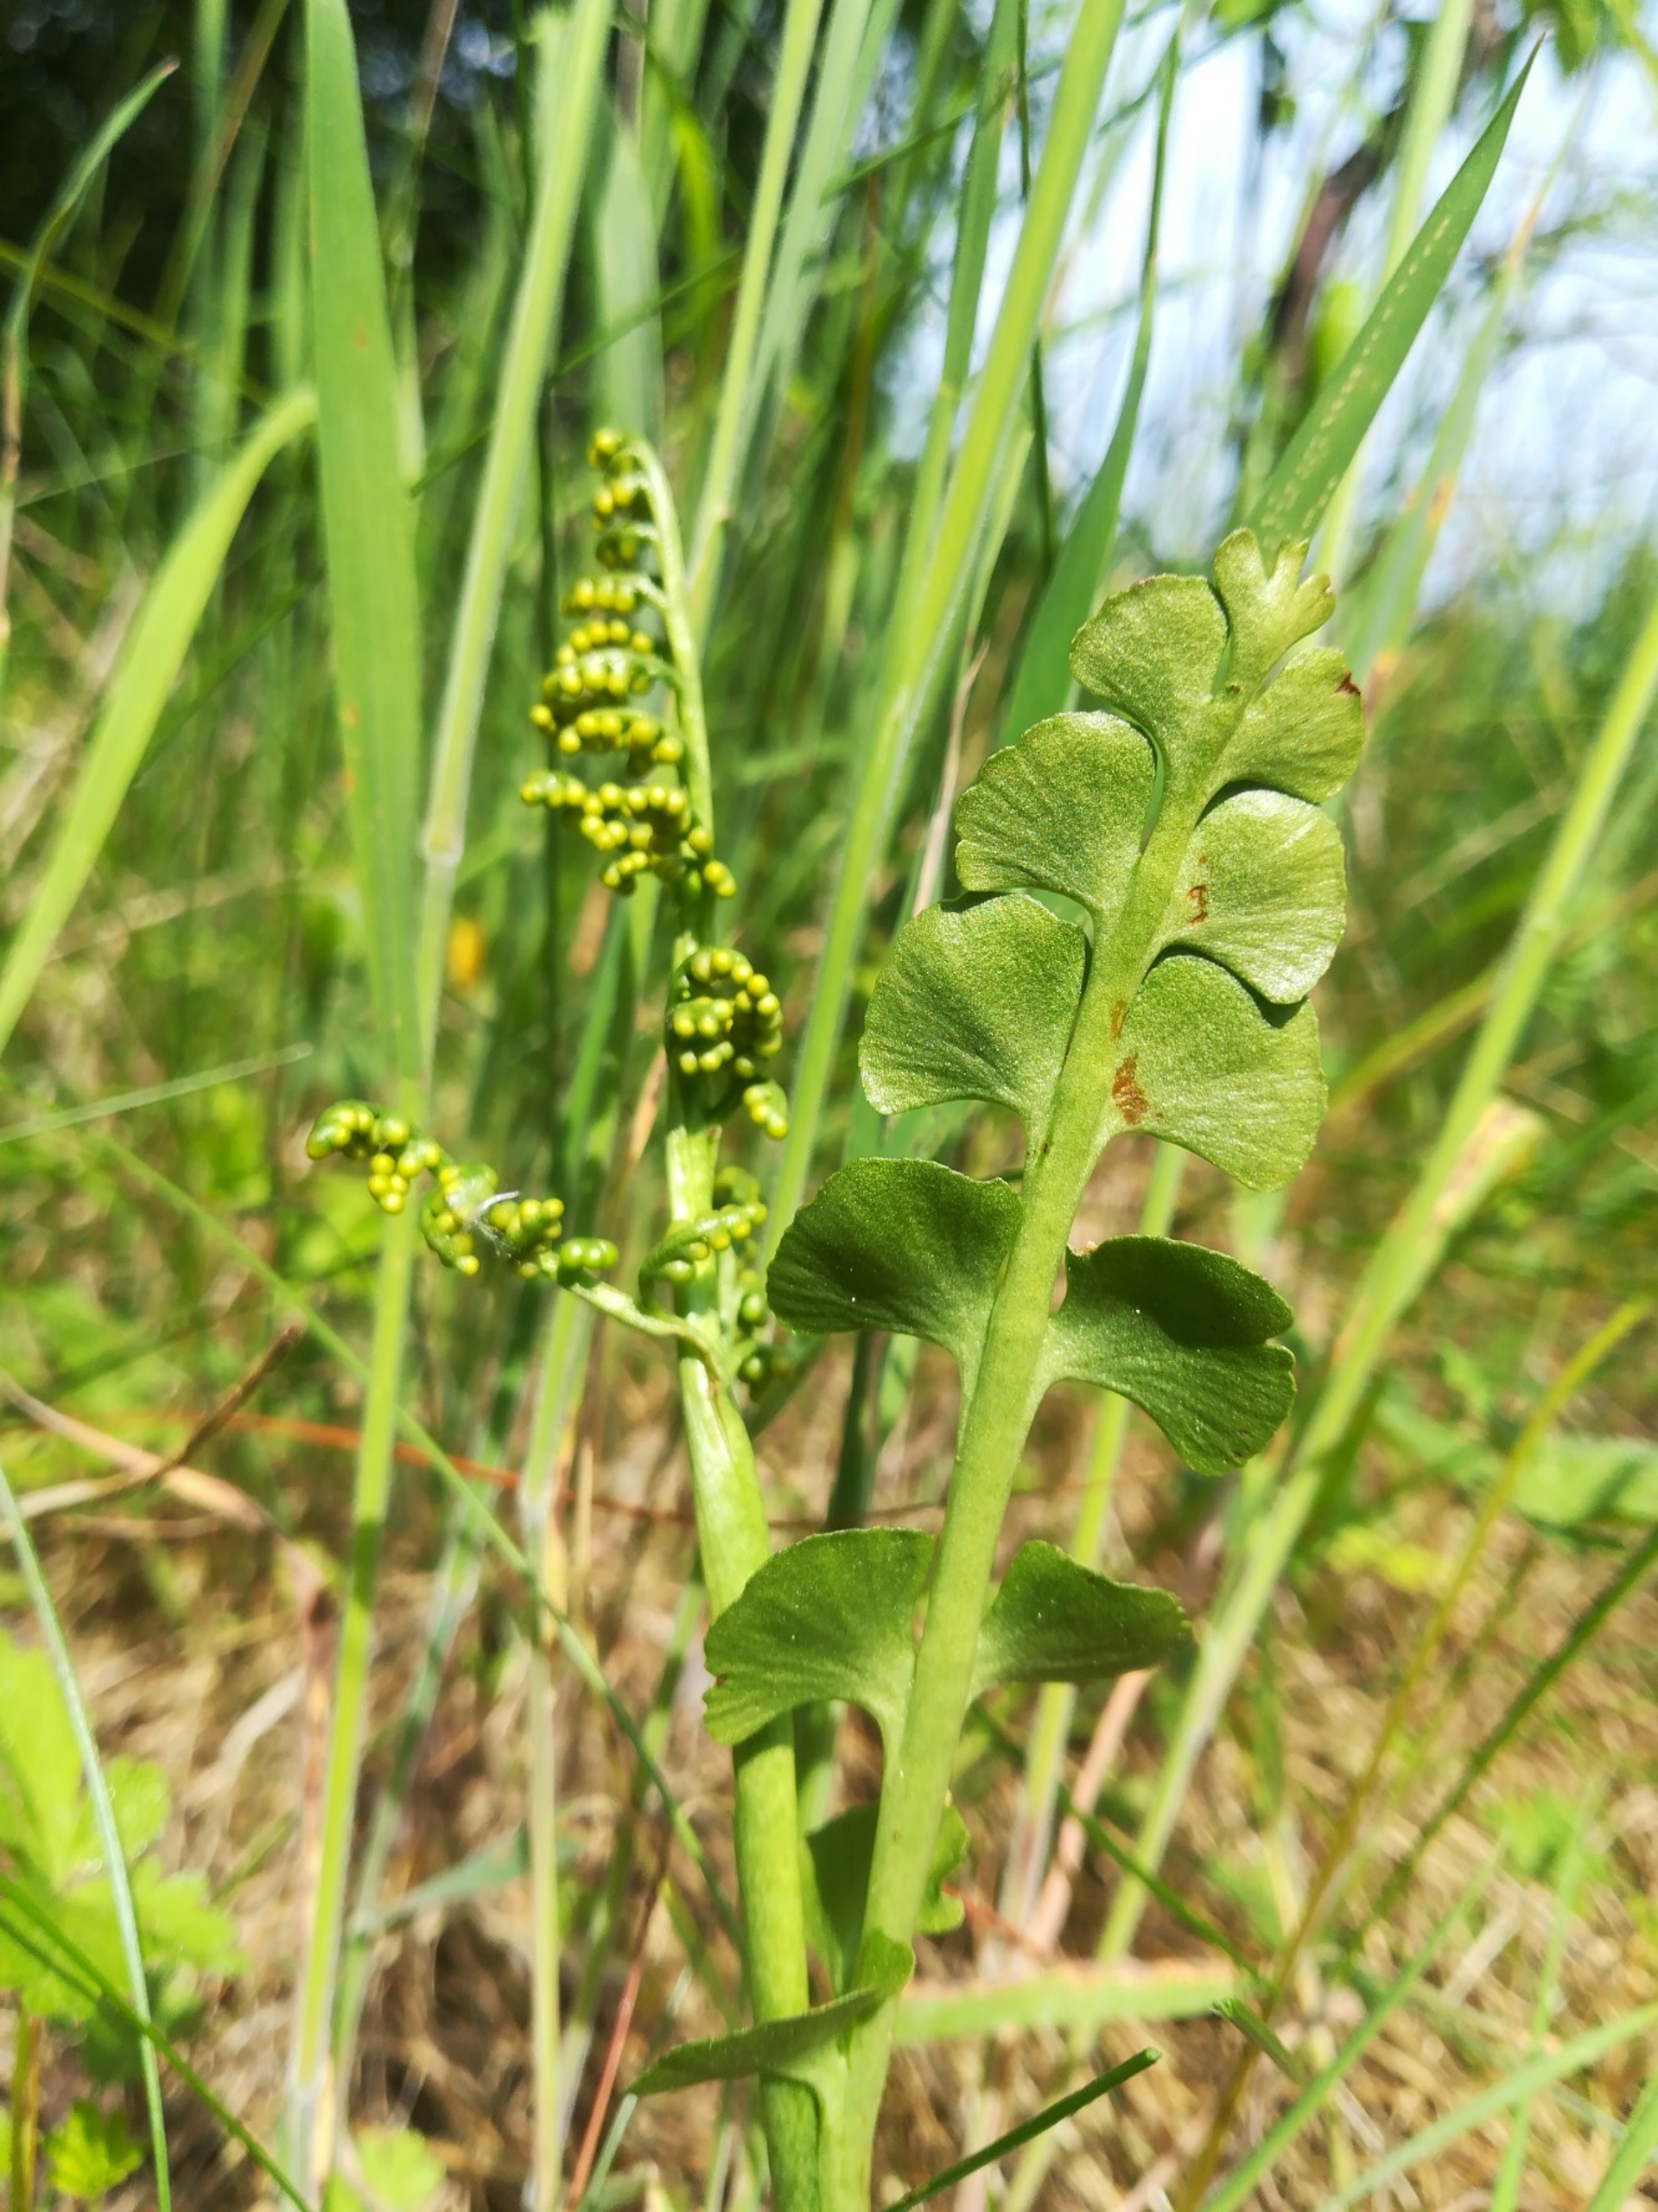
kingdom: Plantae
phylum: Tracheophyta
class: Polypodiopsida
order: Ophioglossales
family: Ophioglossaceae
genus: Botrychium
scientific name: Botrychium lunaria
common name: Almindelig månerude
